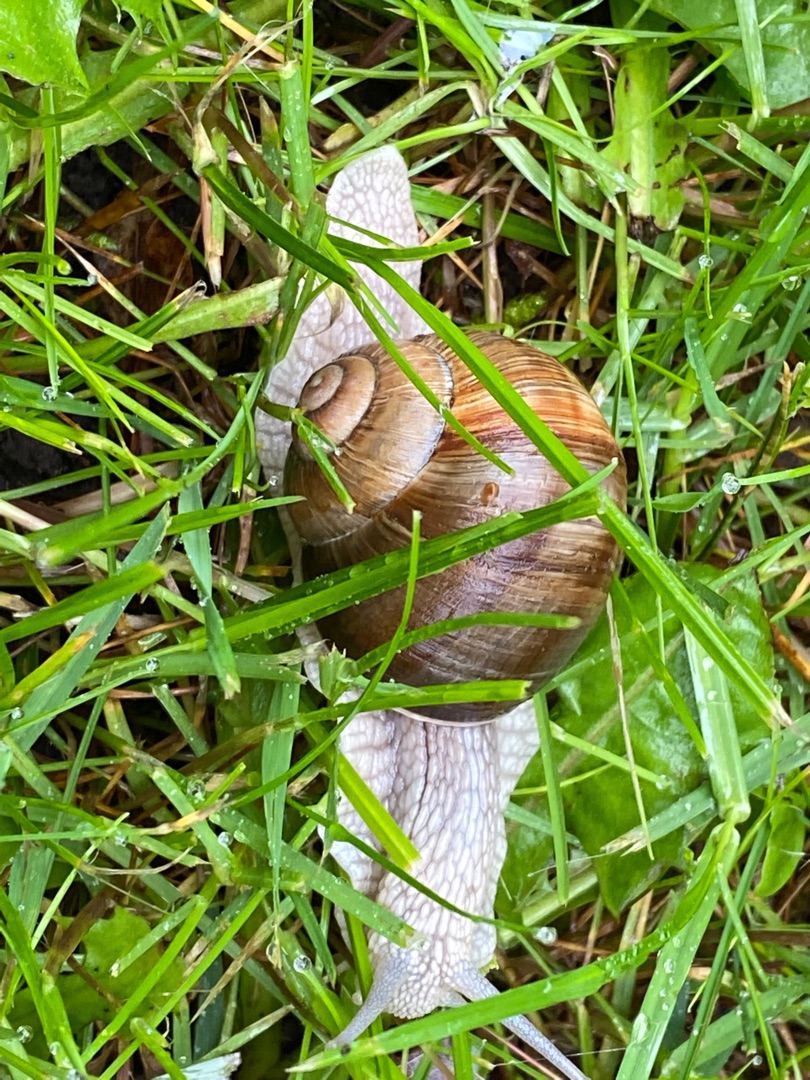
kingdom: Animalia
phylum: Mollusca
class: Gastropoda
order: Stylommatophora
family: Helicidae
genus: Helix
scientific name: Helix pomatia
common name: Vinbjergsnegl
